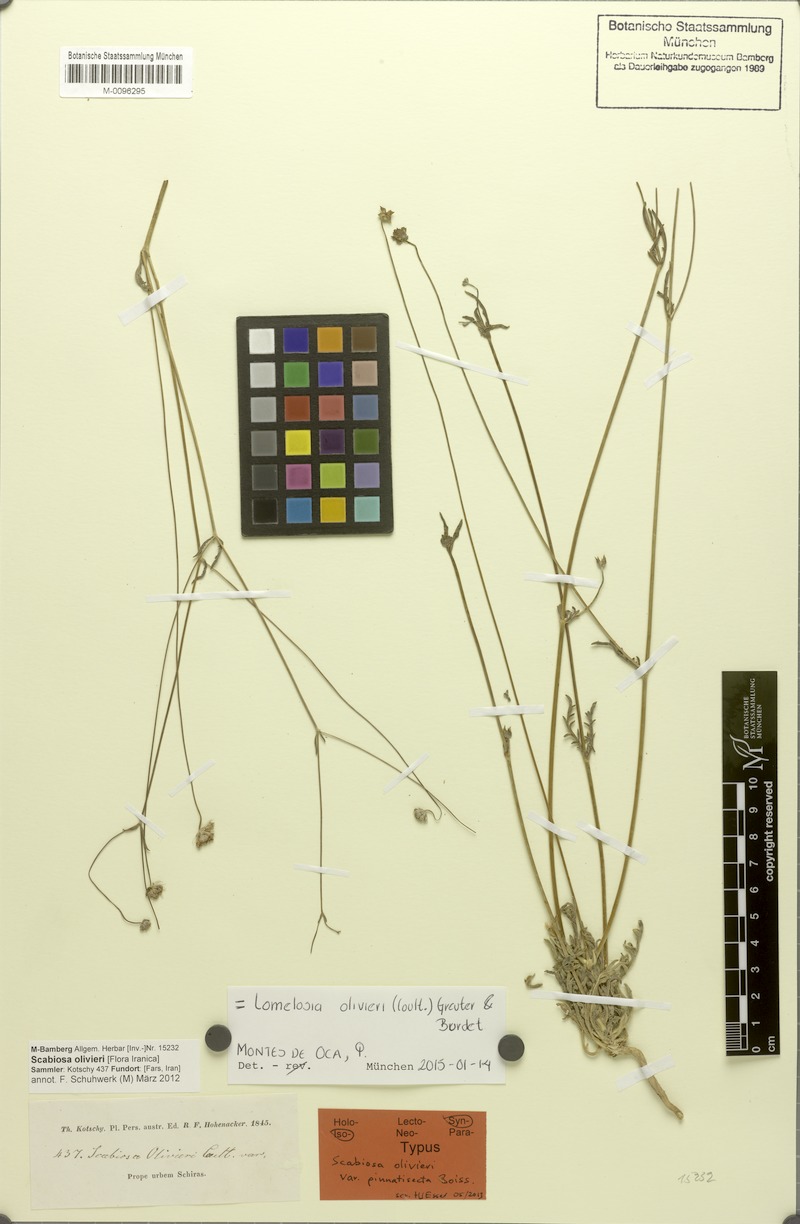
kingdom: Plantae
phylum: Tracheophyta
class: Magnoliopsida
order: Dipsacales
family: Caprifoliaceae
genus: Lomelosia
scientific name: Lomelosia olivieri
